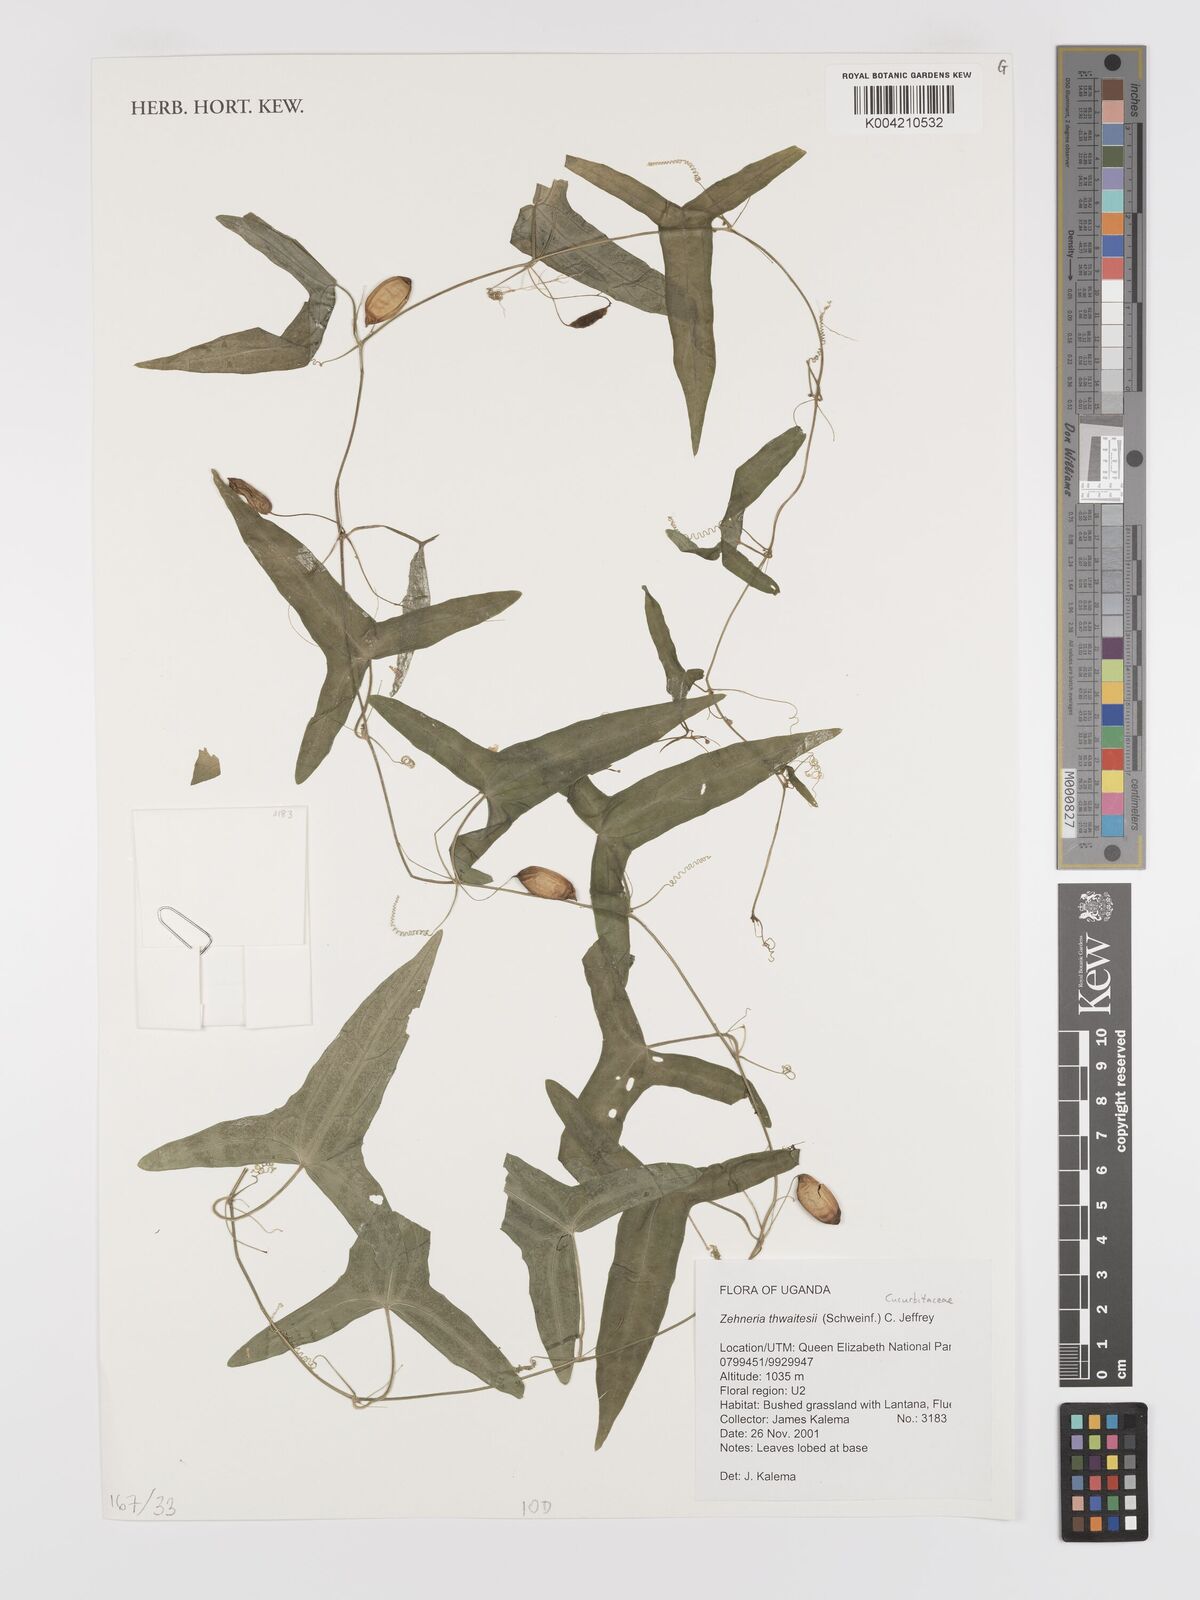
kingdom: Plantae
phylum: Tracheophyta
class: Magnoliopsida
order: Cucurbitales
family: Cucurbitaceae
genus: Zehneria
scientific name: Zehneria thwaitesii
